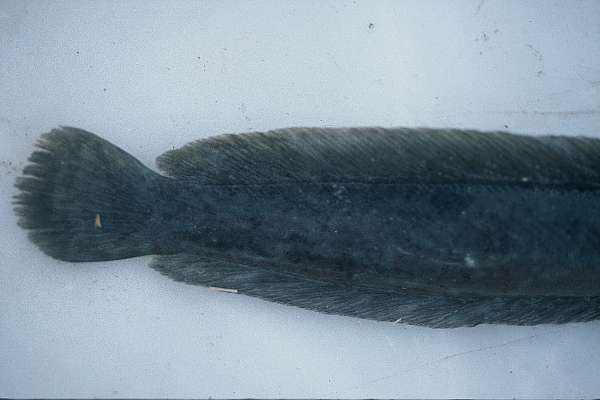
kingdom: Animalia
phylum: Chordata
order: Siluriformes
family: Clariidae
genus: Clariallabes
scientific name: Clariallabes
